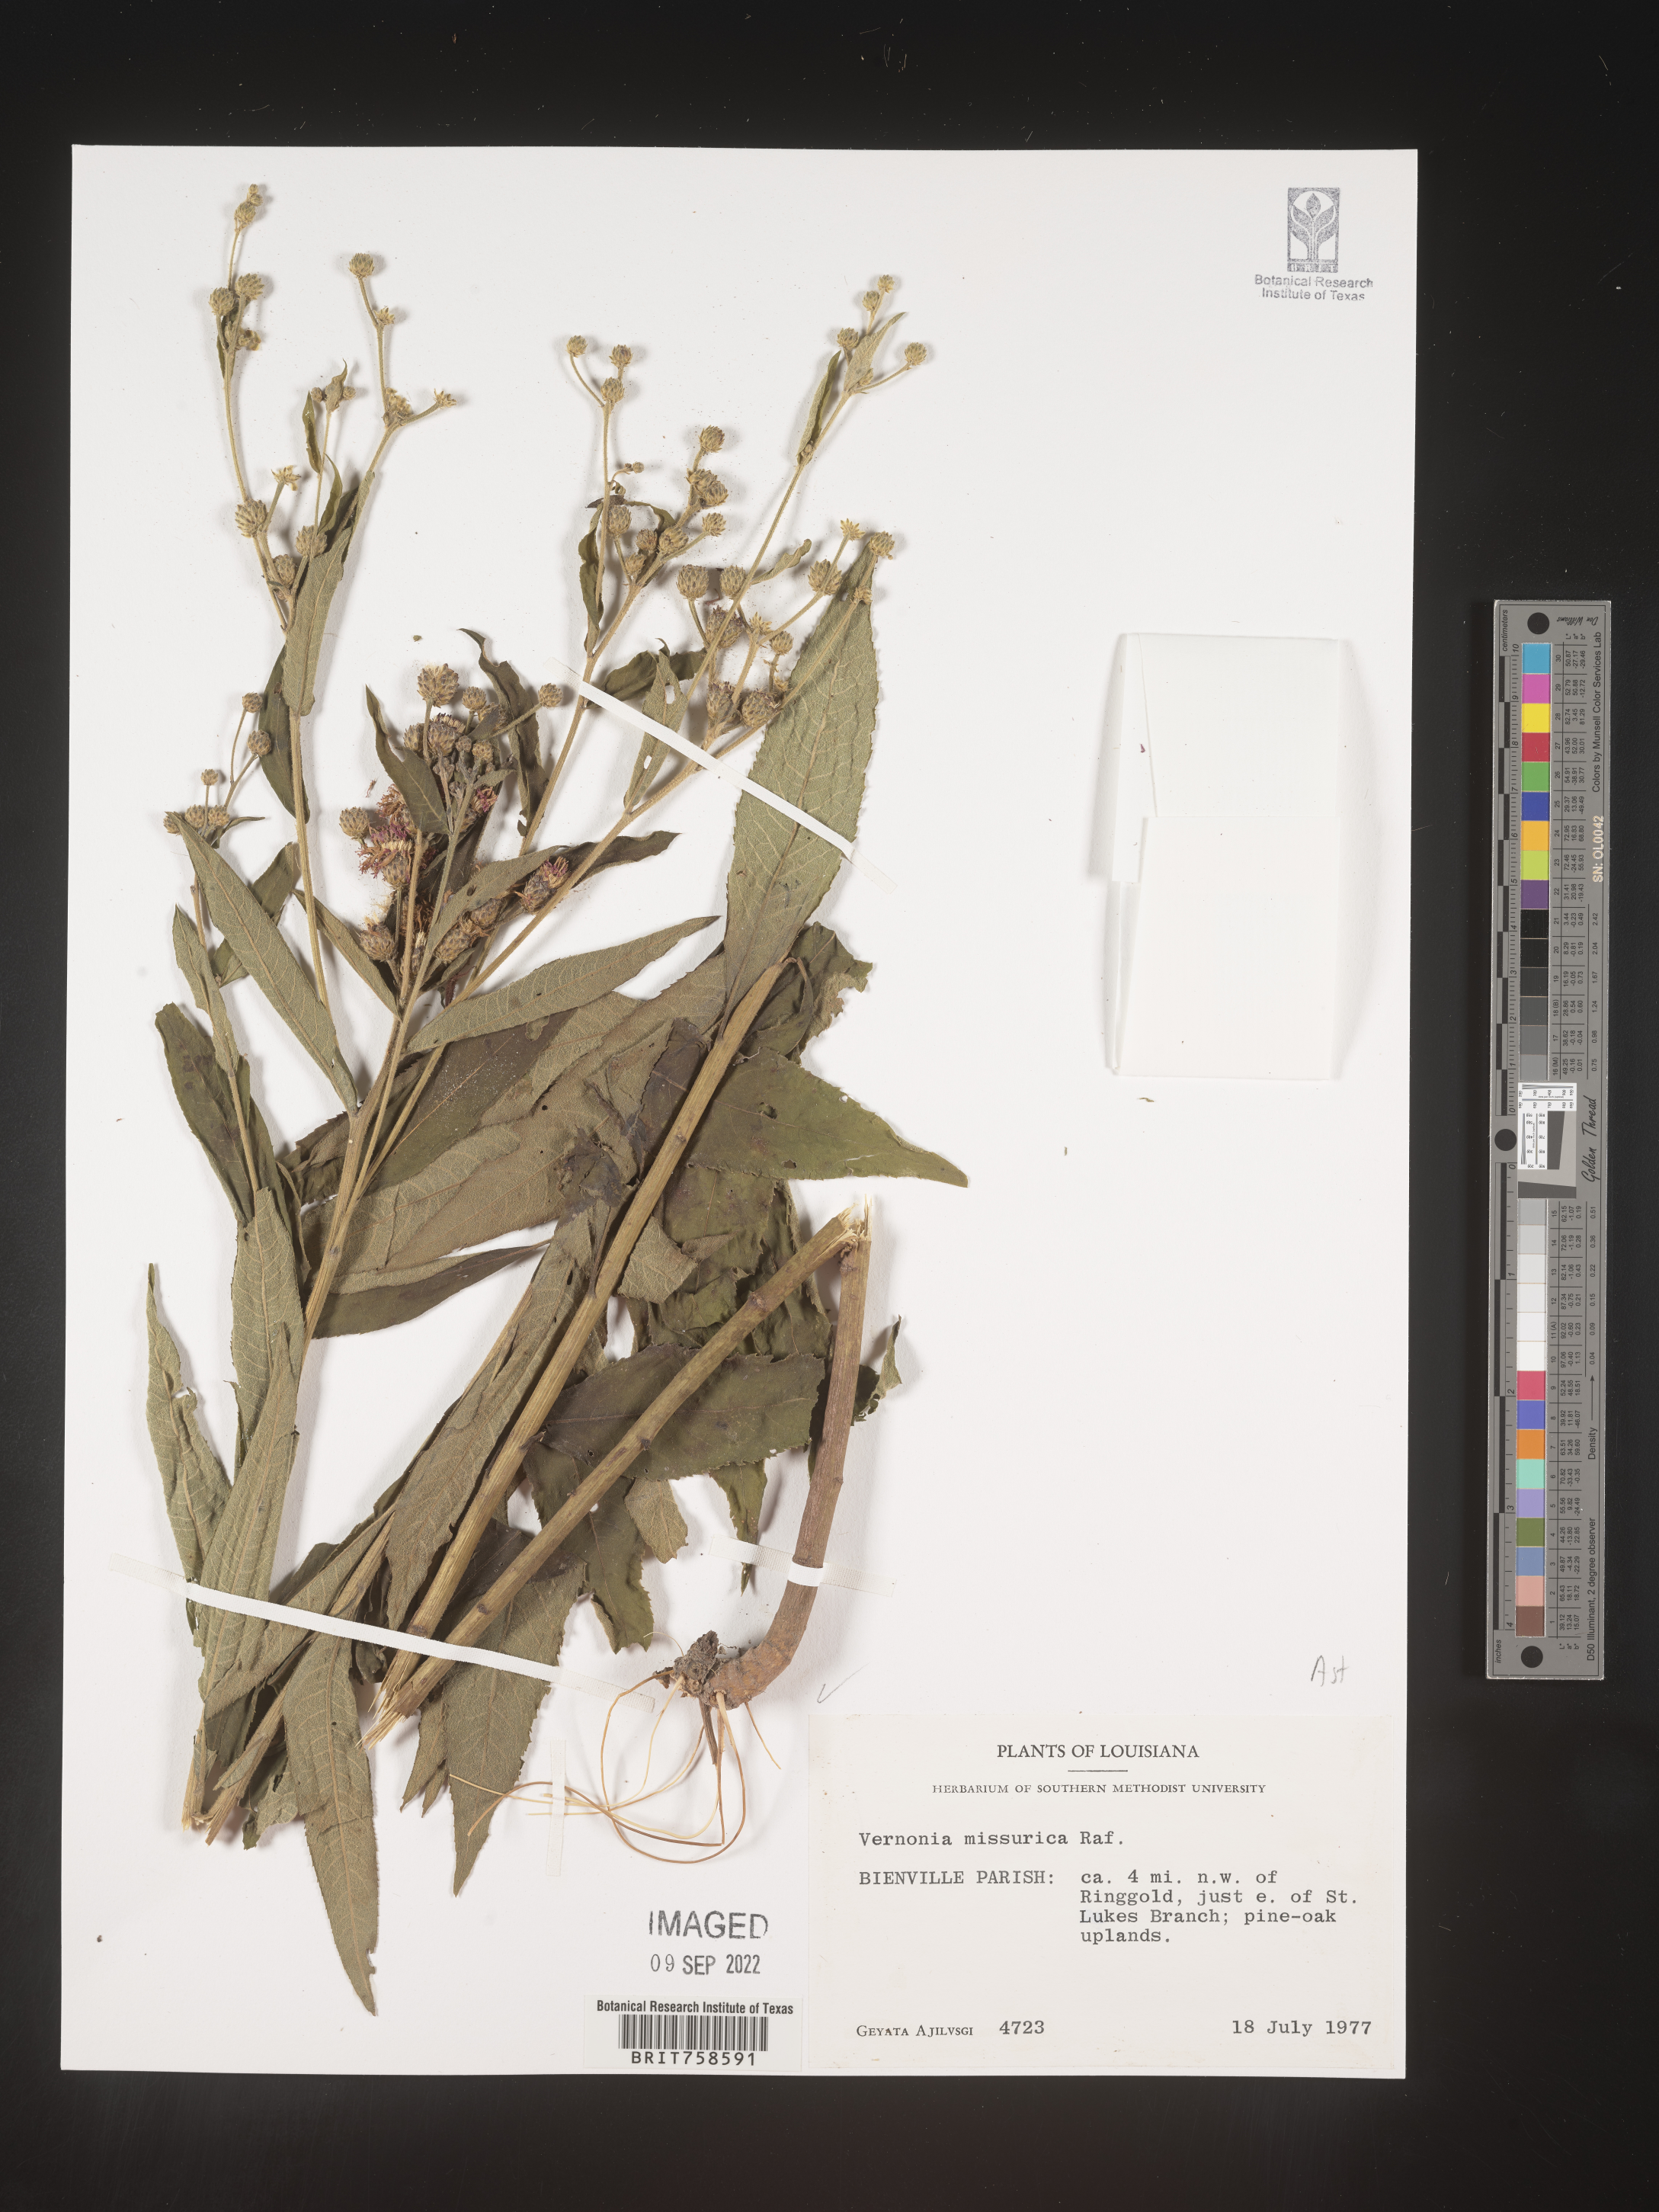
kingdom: Plantae
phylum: Tracheophyta
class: Magnoliopsida
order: Asterales
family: Asteraceae
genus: Vernonia
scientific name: Vernonia missurica
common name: Missouri ironweed
